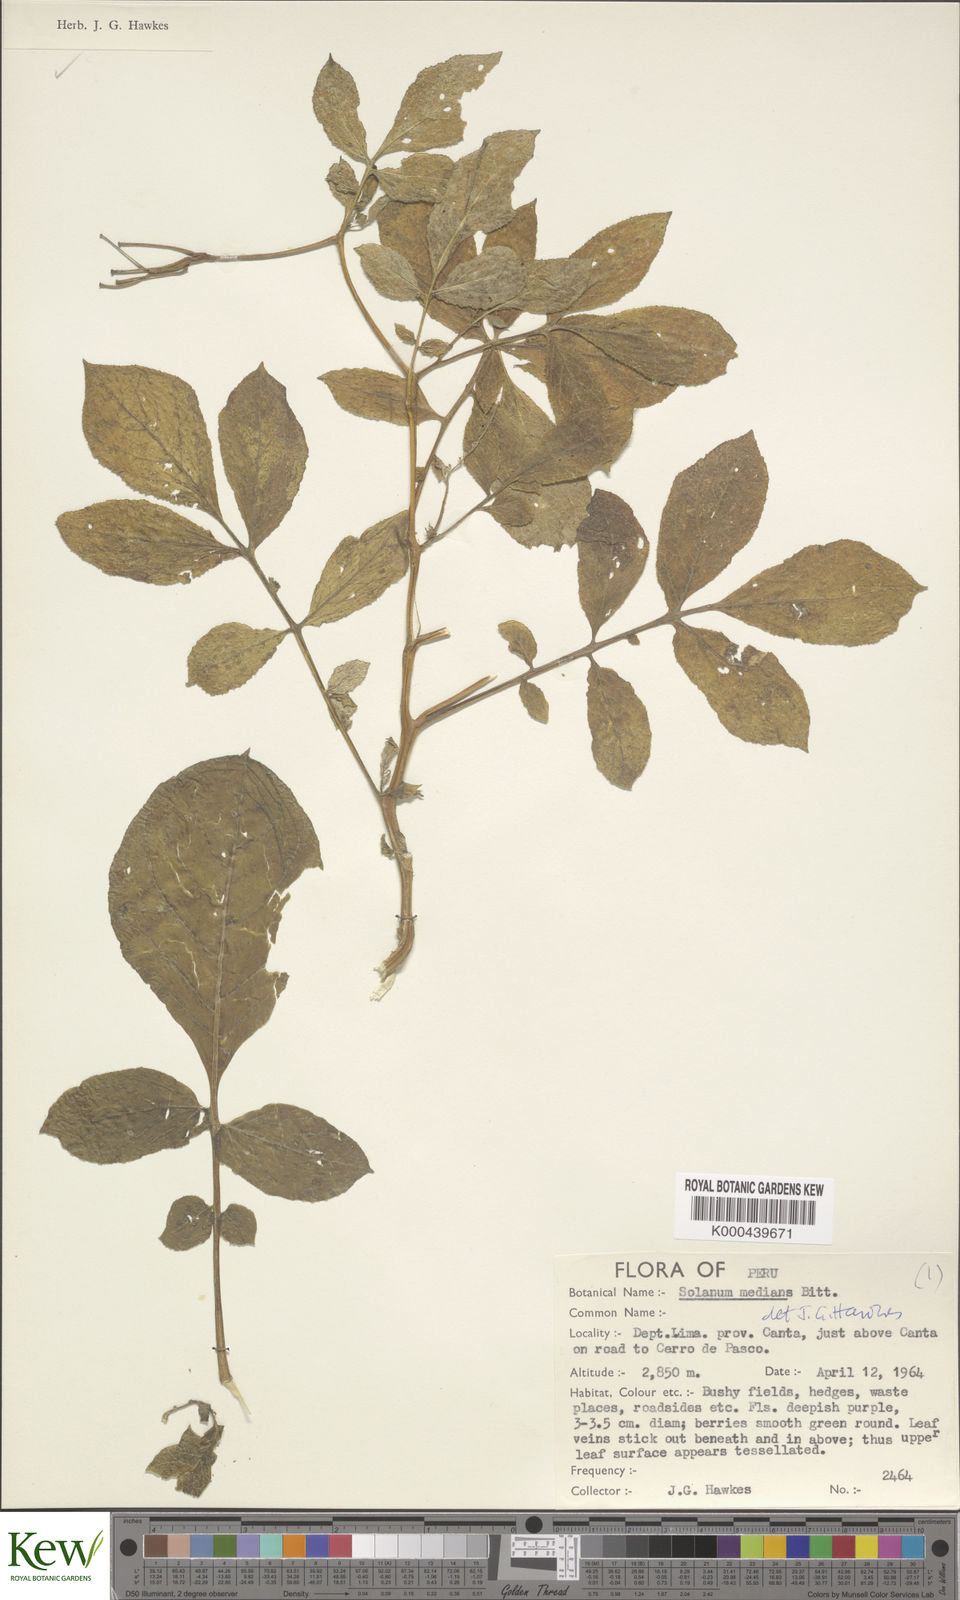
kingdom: Plantae
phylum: Tracheophyta
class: Magnoliopsida
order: Solanales
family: Solanaceae
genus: Solanum
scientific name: Solanum medians
